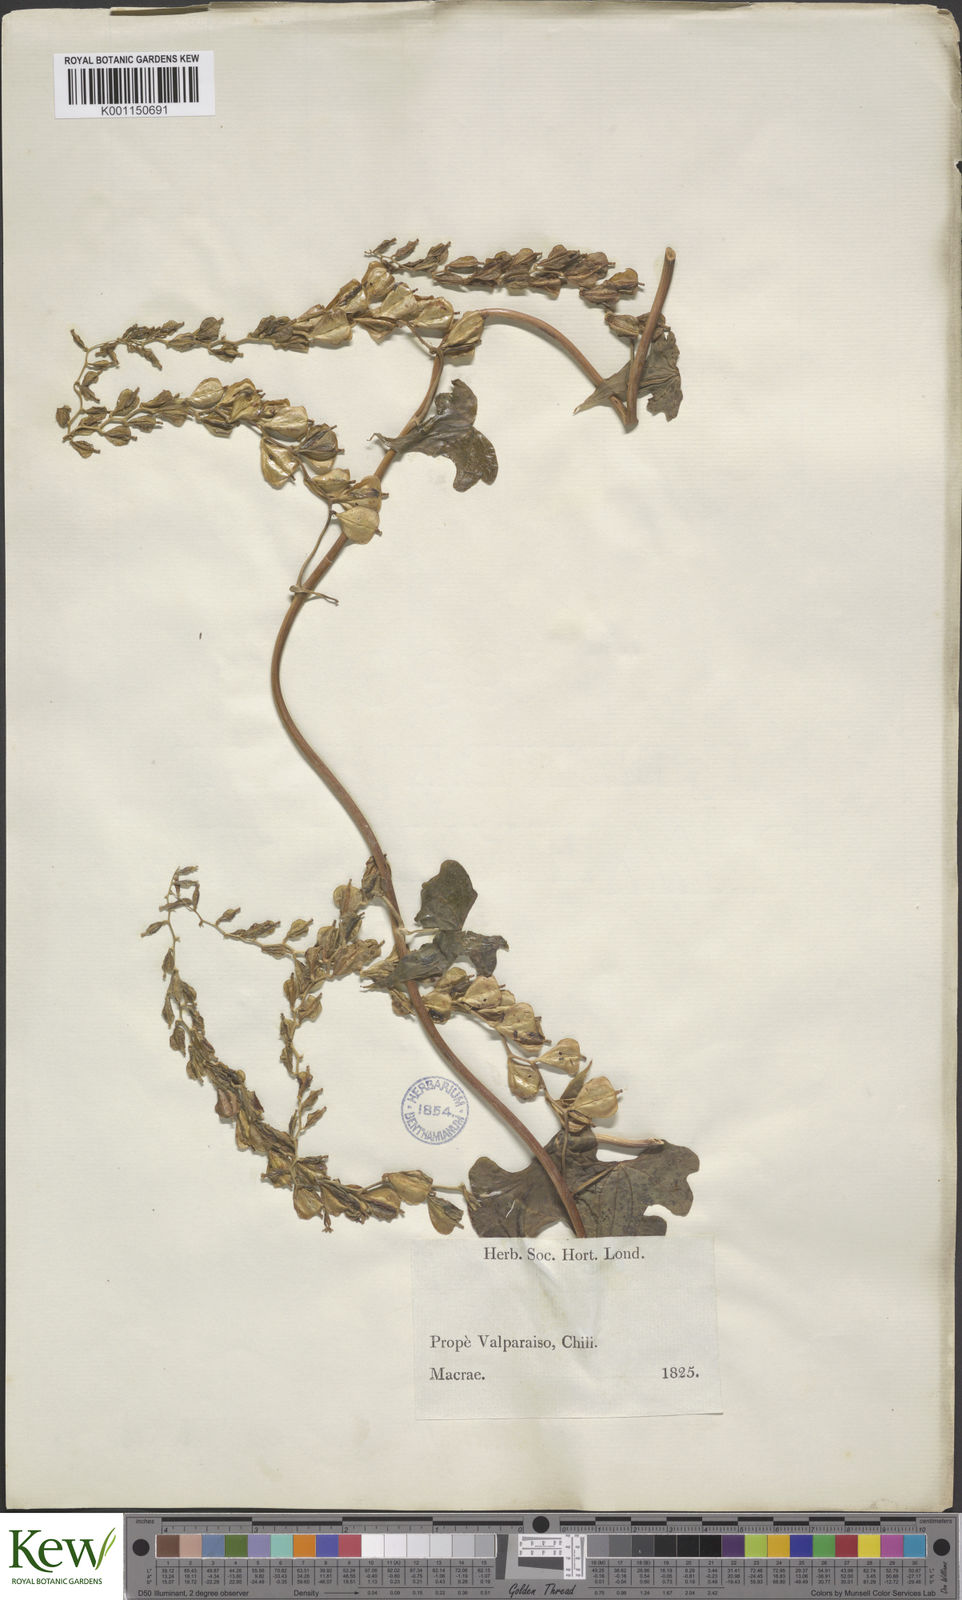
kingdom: Plantae
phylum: Tracheophyta
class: Liliopsida
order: Dioscoreales
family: Dioscoreaceae
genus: Dioscorea
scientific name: Dioscorea bryoniifolia
